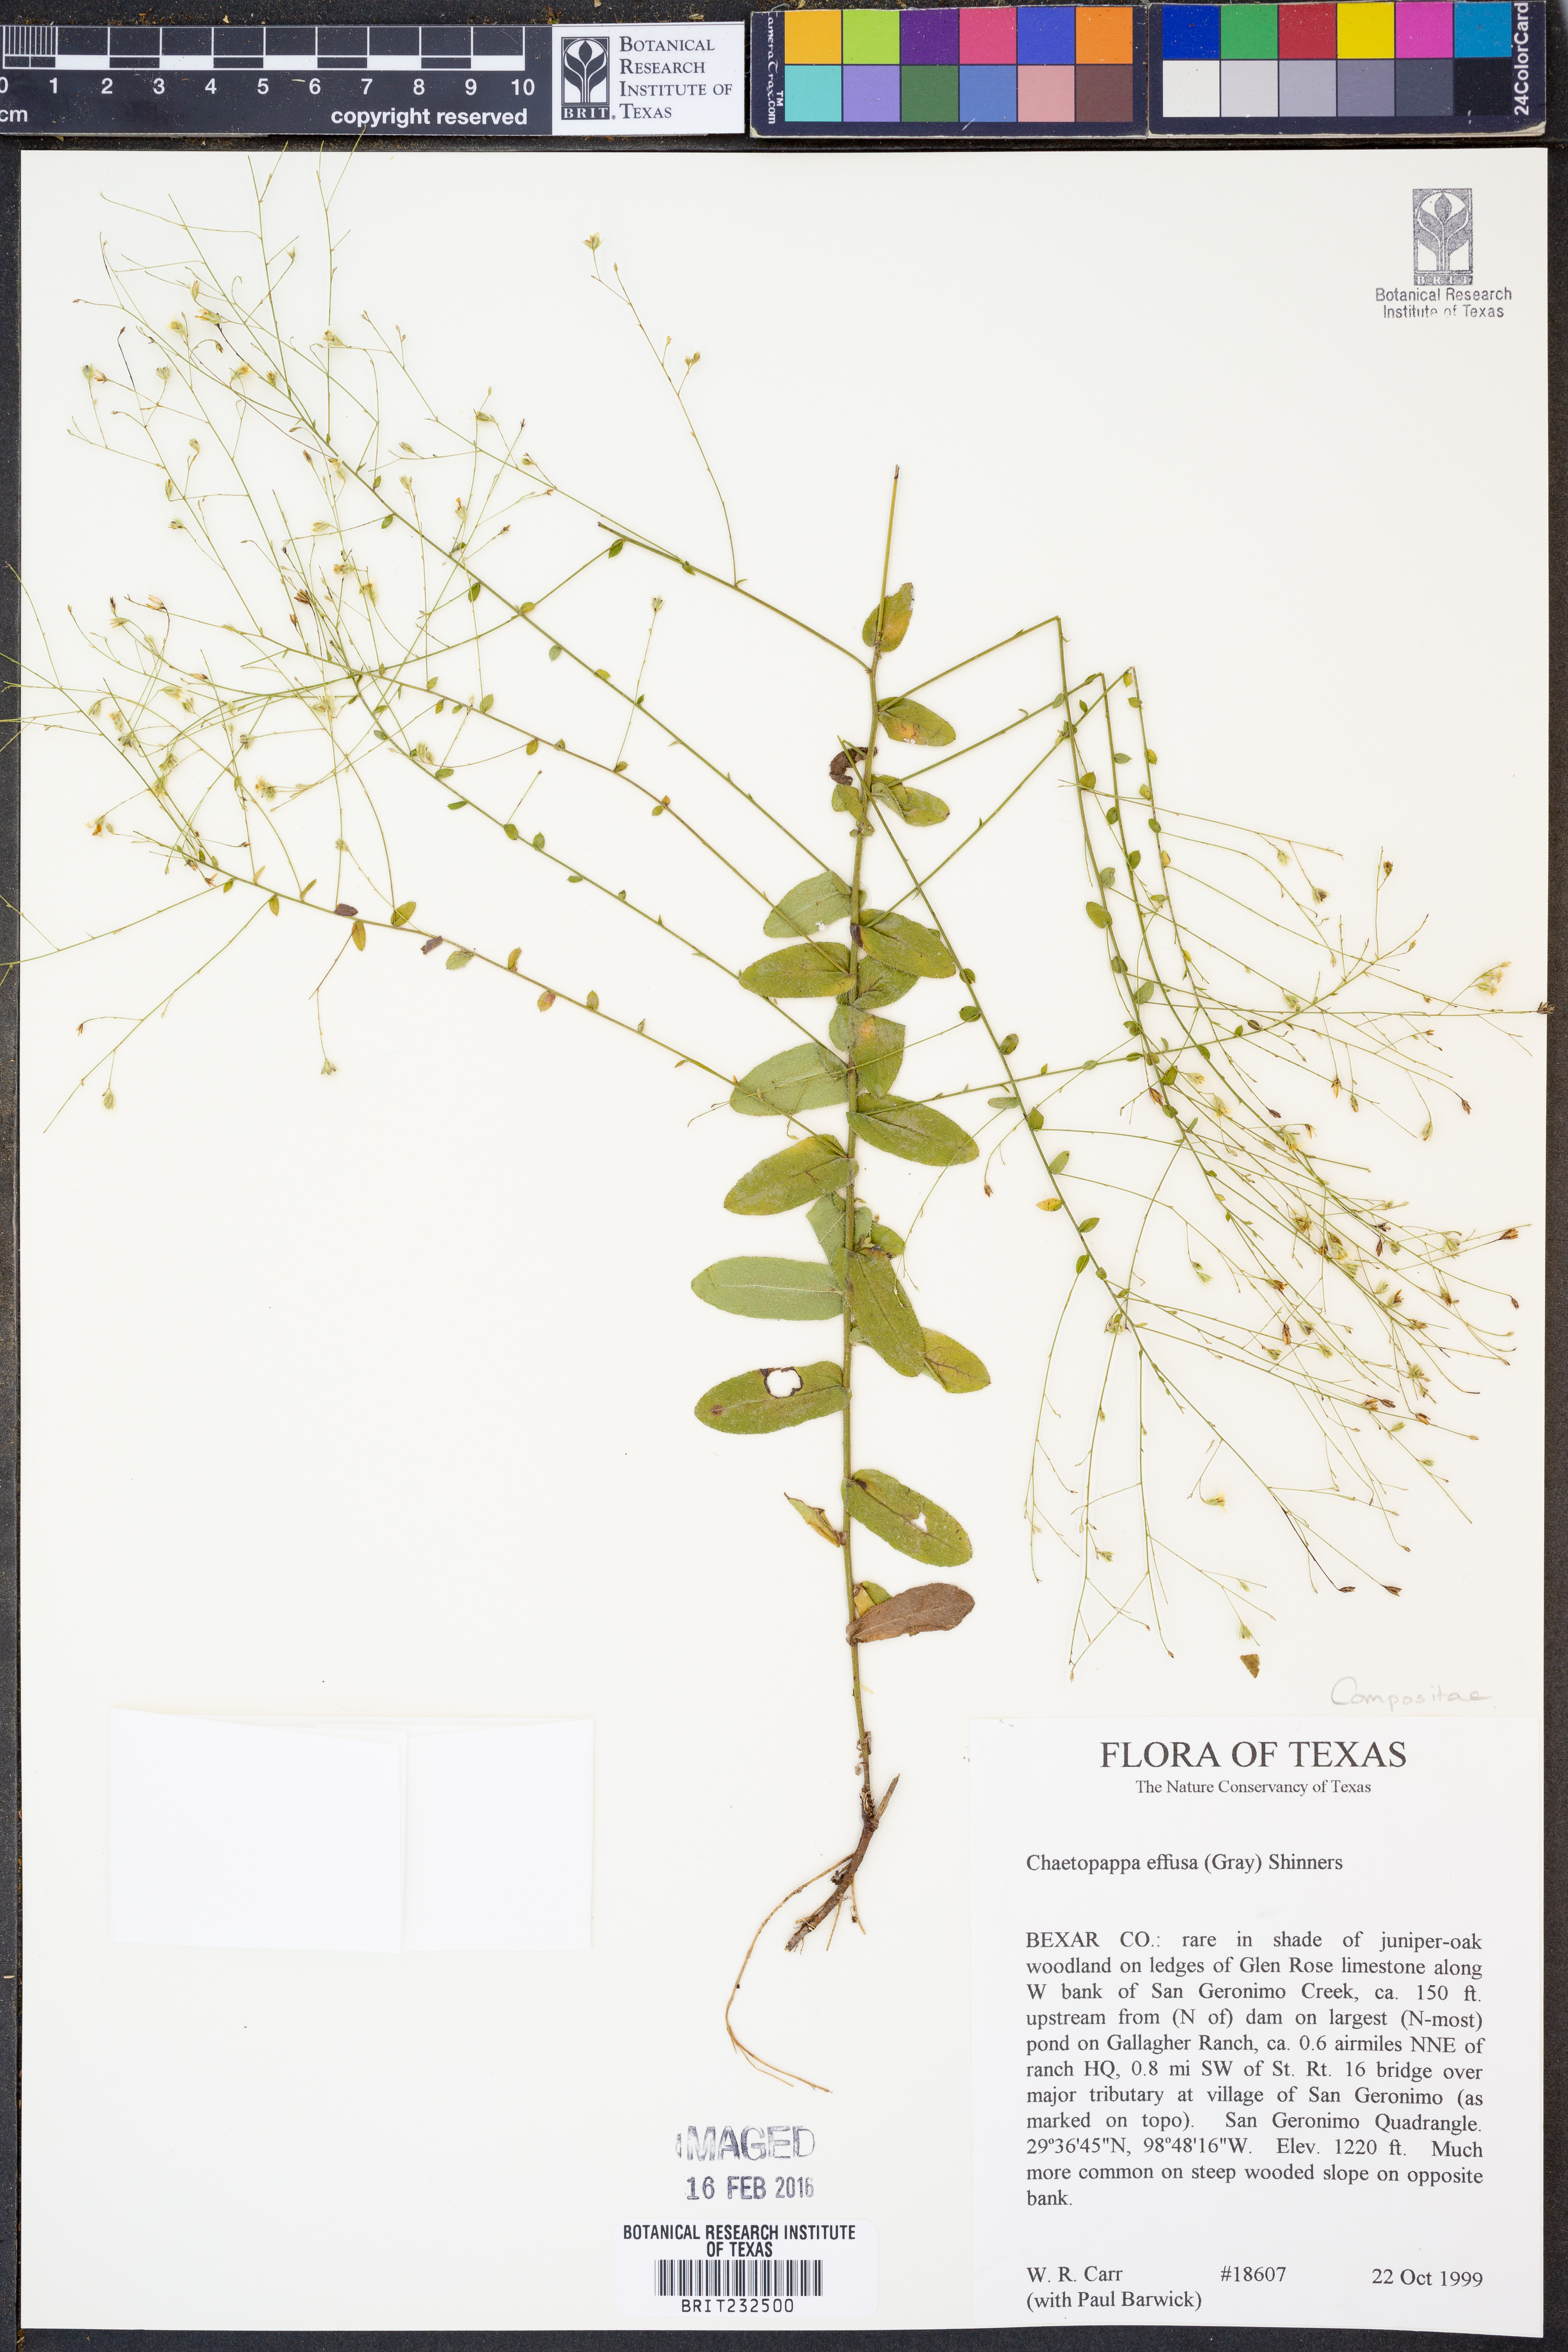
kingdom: Plantae
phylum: Tracheophyta
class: Magnoliopsida
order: Asterales
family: Asteraceae
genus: Chaetopappa
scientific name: Chaetopappa effusa
